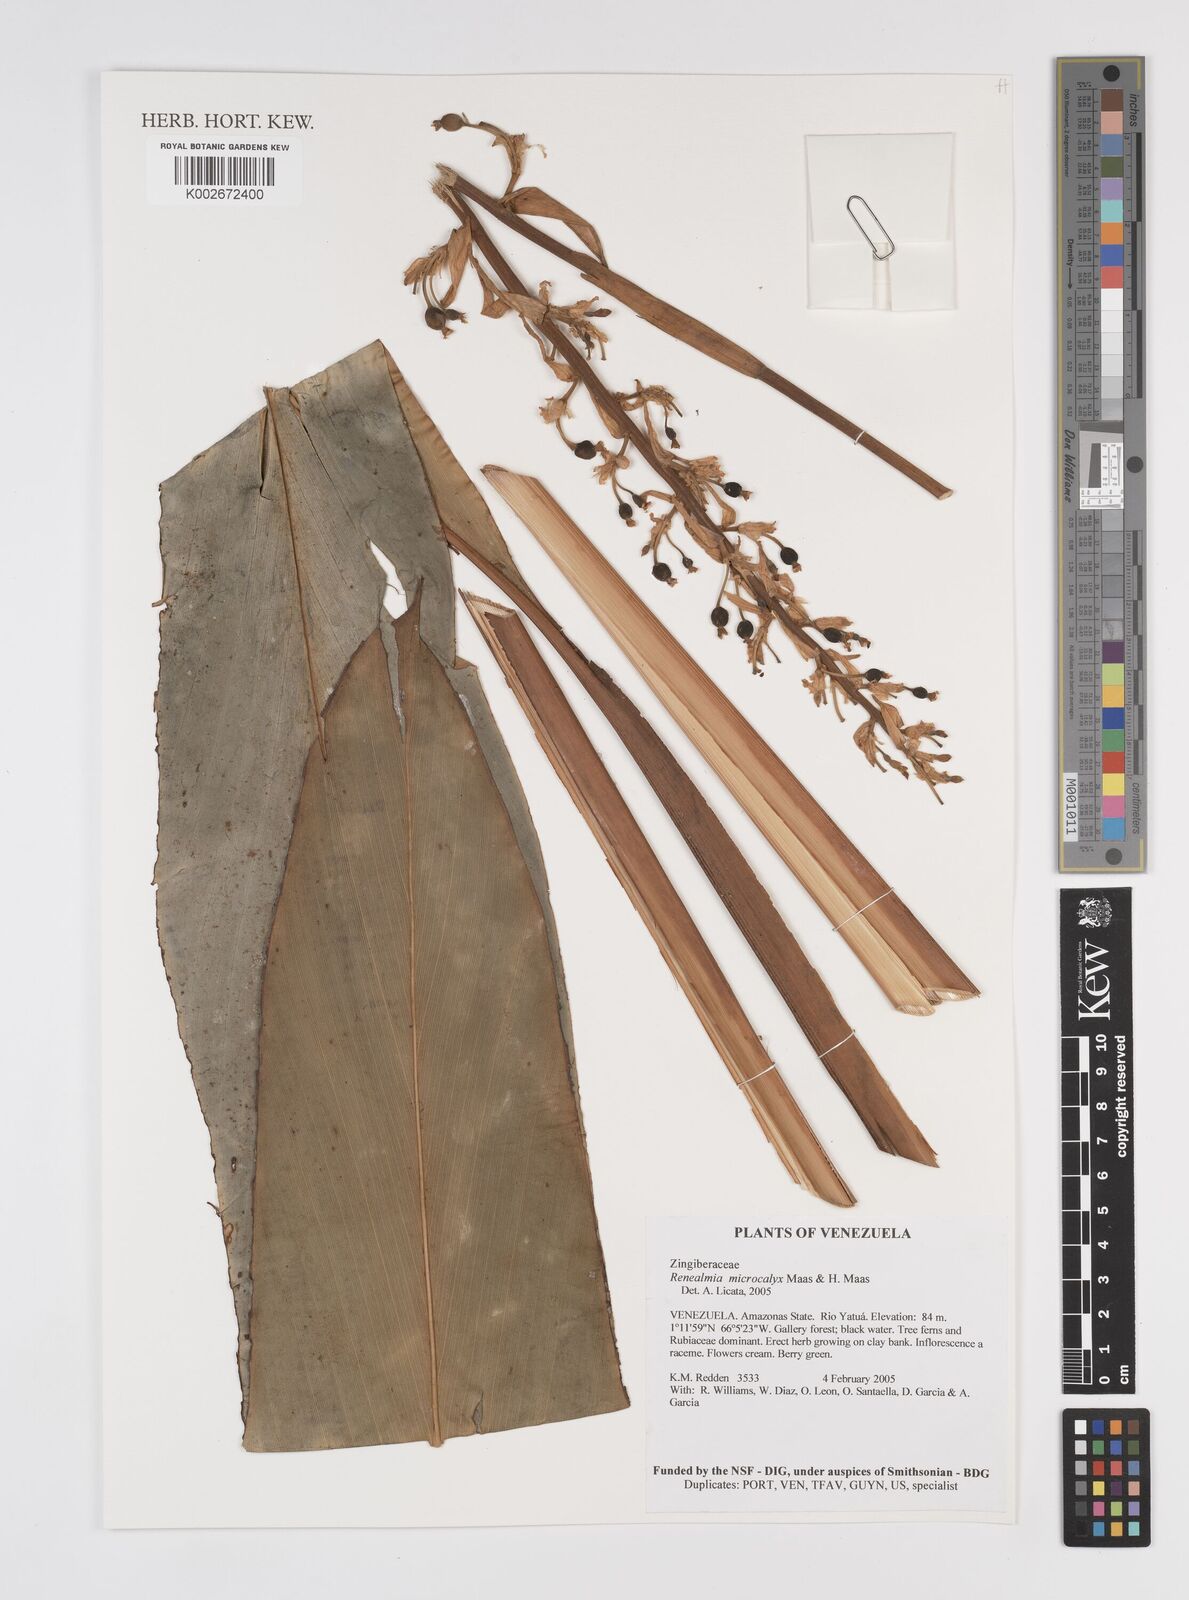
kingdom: Plantae
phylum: Tracheophyta
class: Liliopsida
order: Zingiberales
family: Zingiberaceae
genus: Renealmia
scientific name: Renealmia microcalyx
